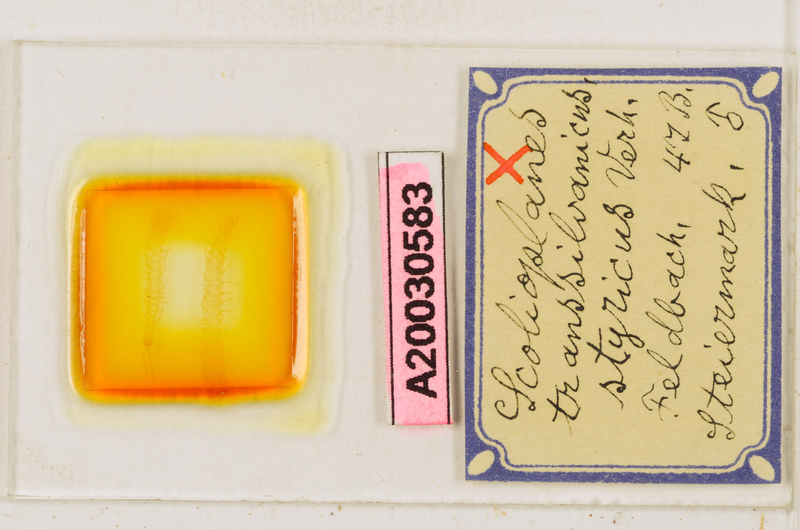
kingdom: Animalia
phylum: Arthropoda
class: Chilopoda
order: Geophilomorpha
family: Linotaeniidae
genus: Strigamia
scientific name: Strigamia transsilvanica
